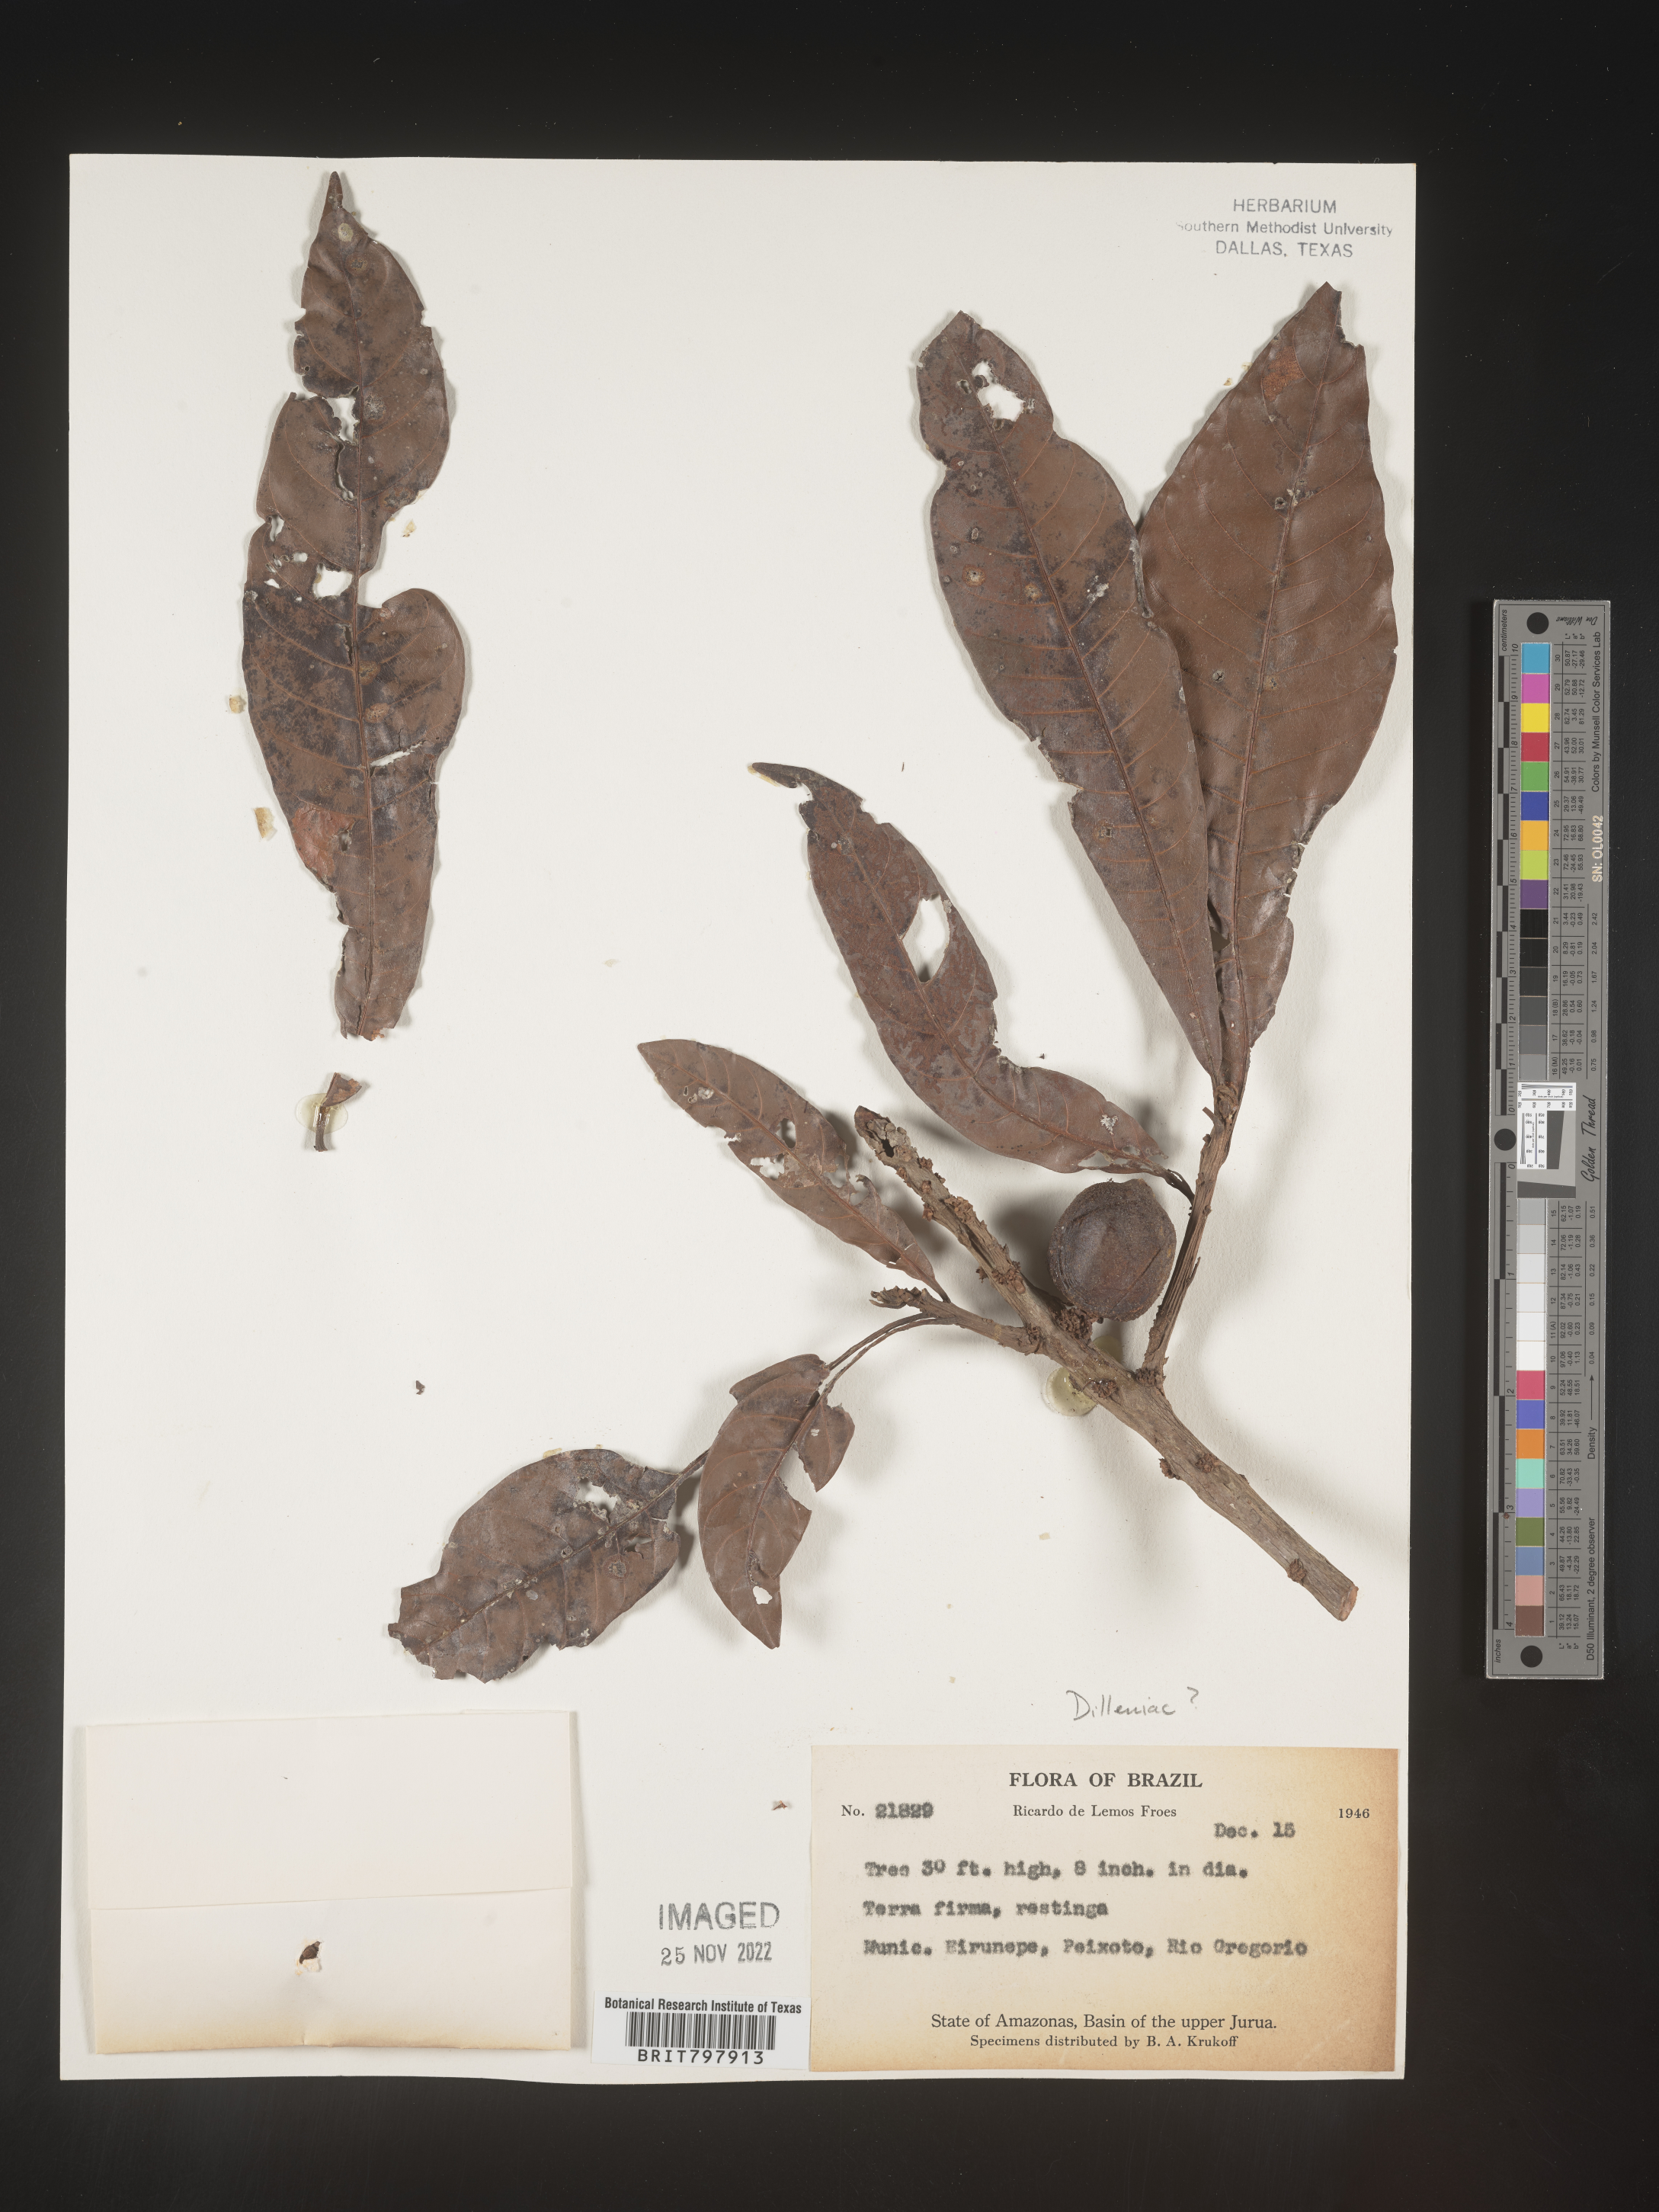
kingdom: Plantae
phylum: Tracheophyta
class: Magnoliopsida
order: Dilleniales
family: Dilleniaceae
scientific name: Dilleniaceae
